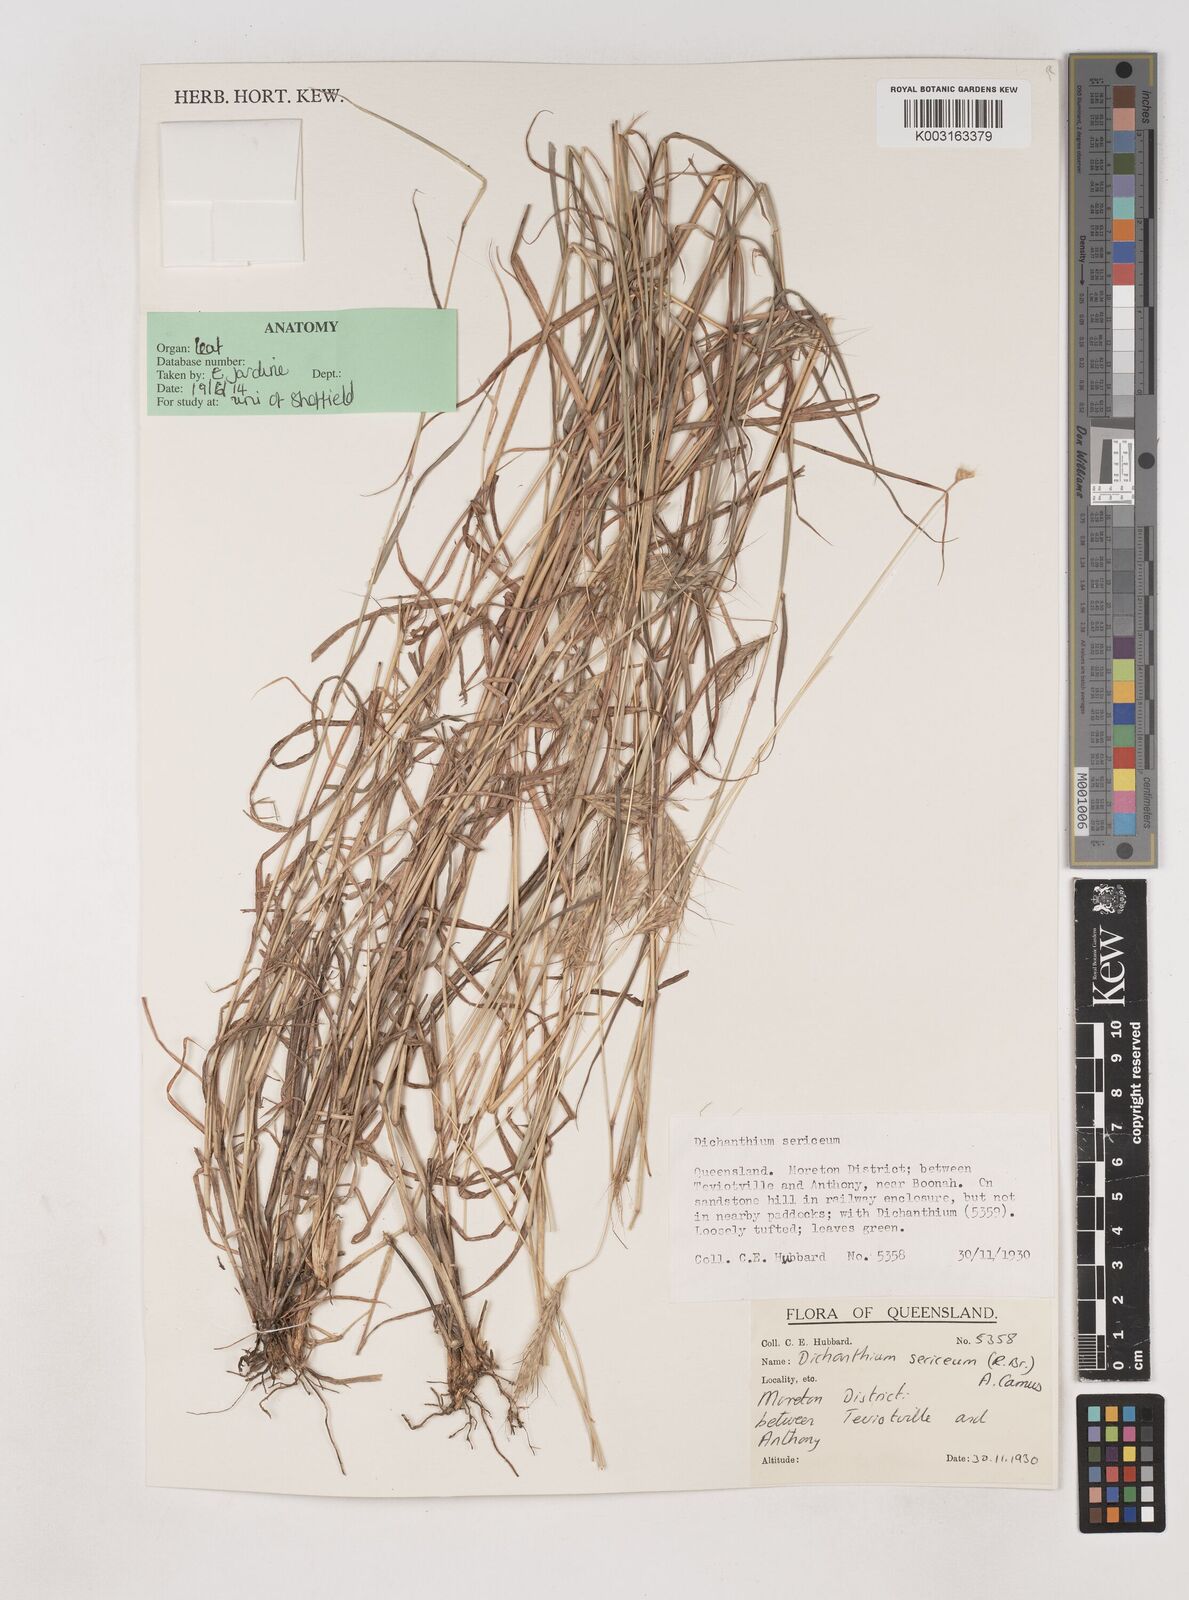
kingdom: Plantae
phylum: Tracheophyta
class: Liliopsida
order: Poales
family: Poaceae
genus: Dichanthium
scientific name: Dichanthium sericeum
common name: Silky bluestem
